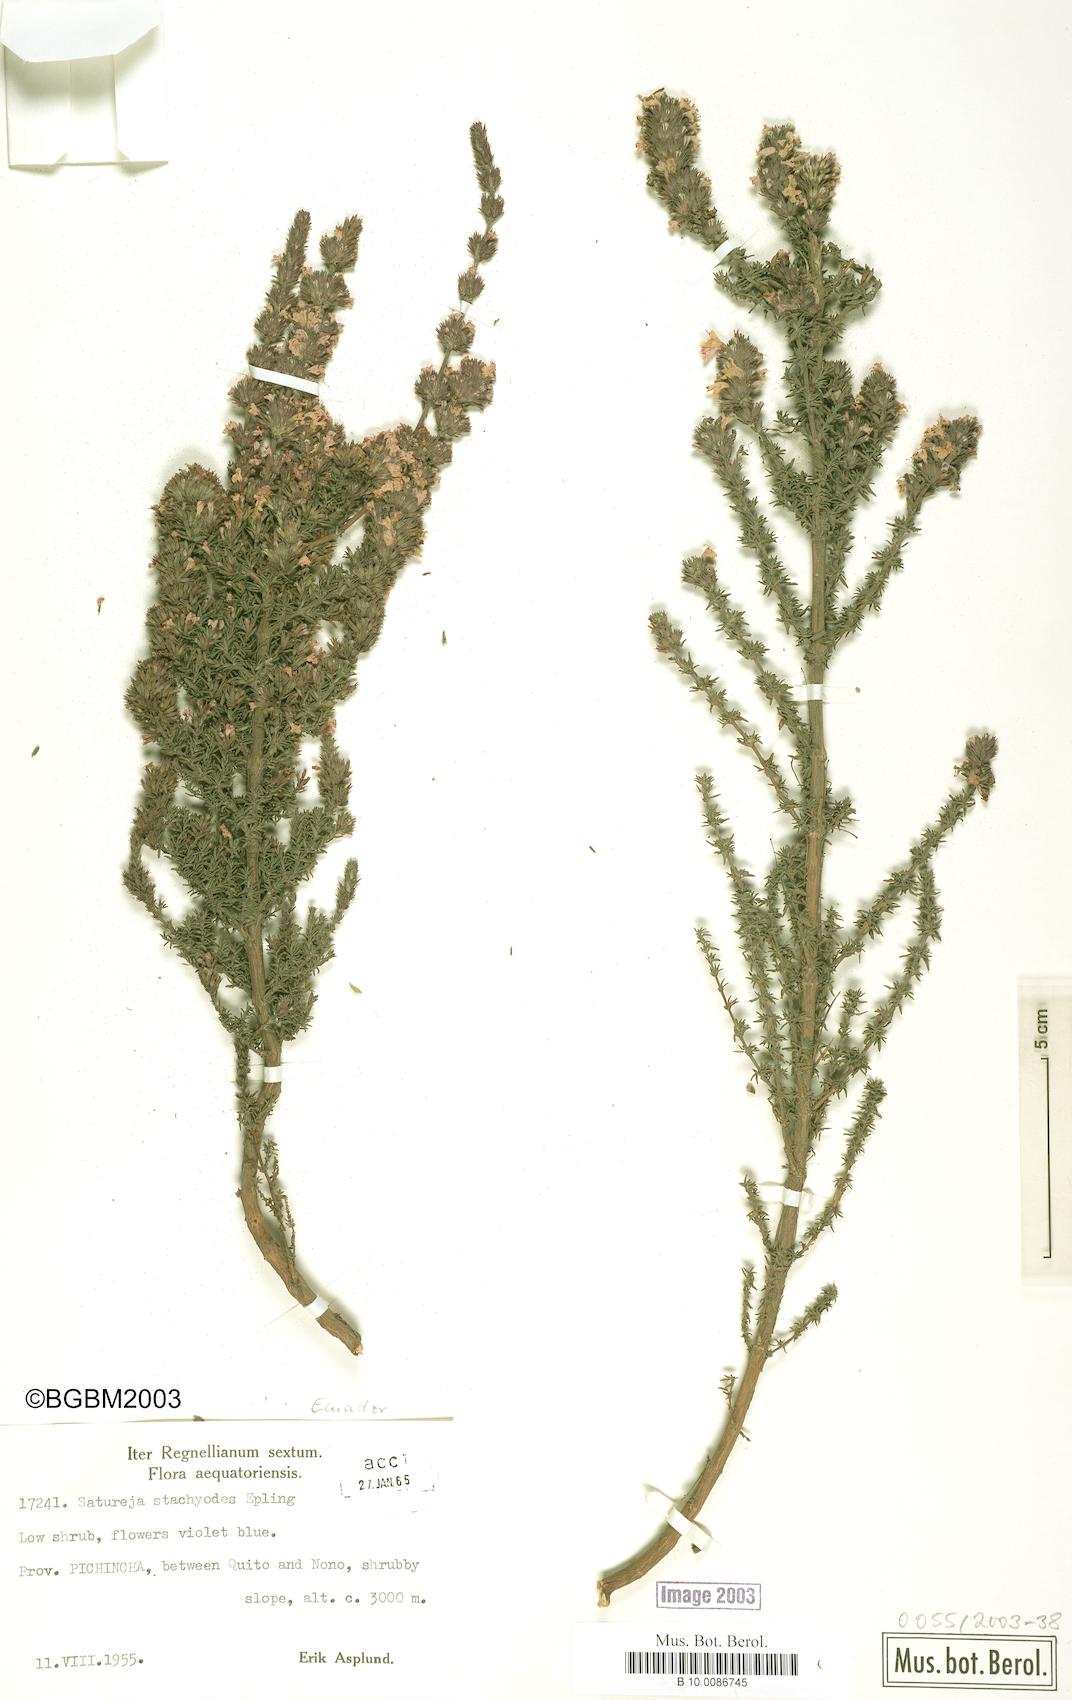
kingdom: Plantae
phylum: Tracheophyta
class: Magnoliopsida
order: Lamiales
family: Lamiaceae
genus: Clinopodium
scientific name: Clinopodium fasciculatum
